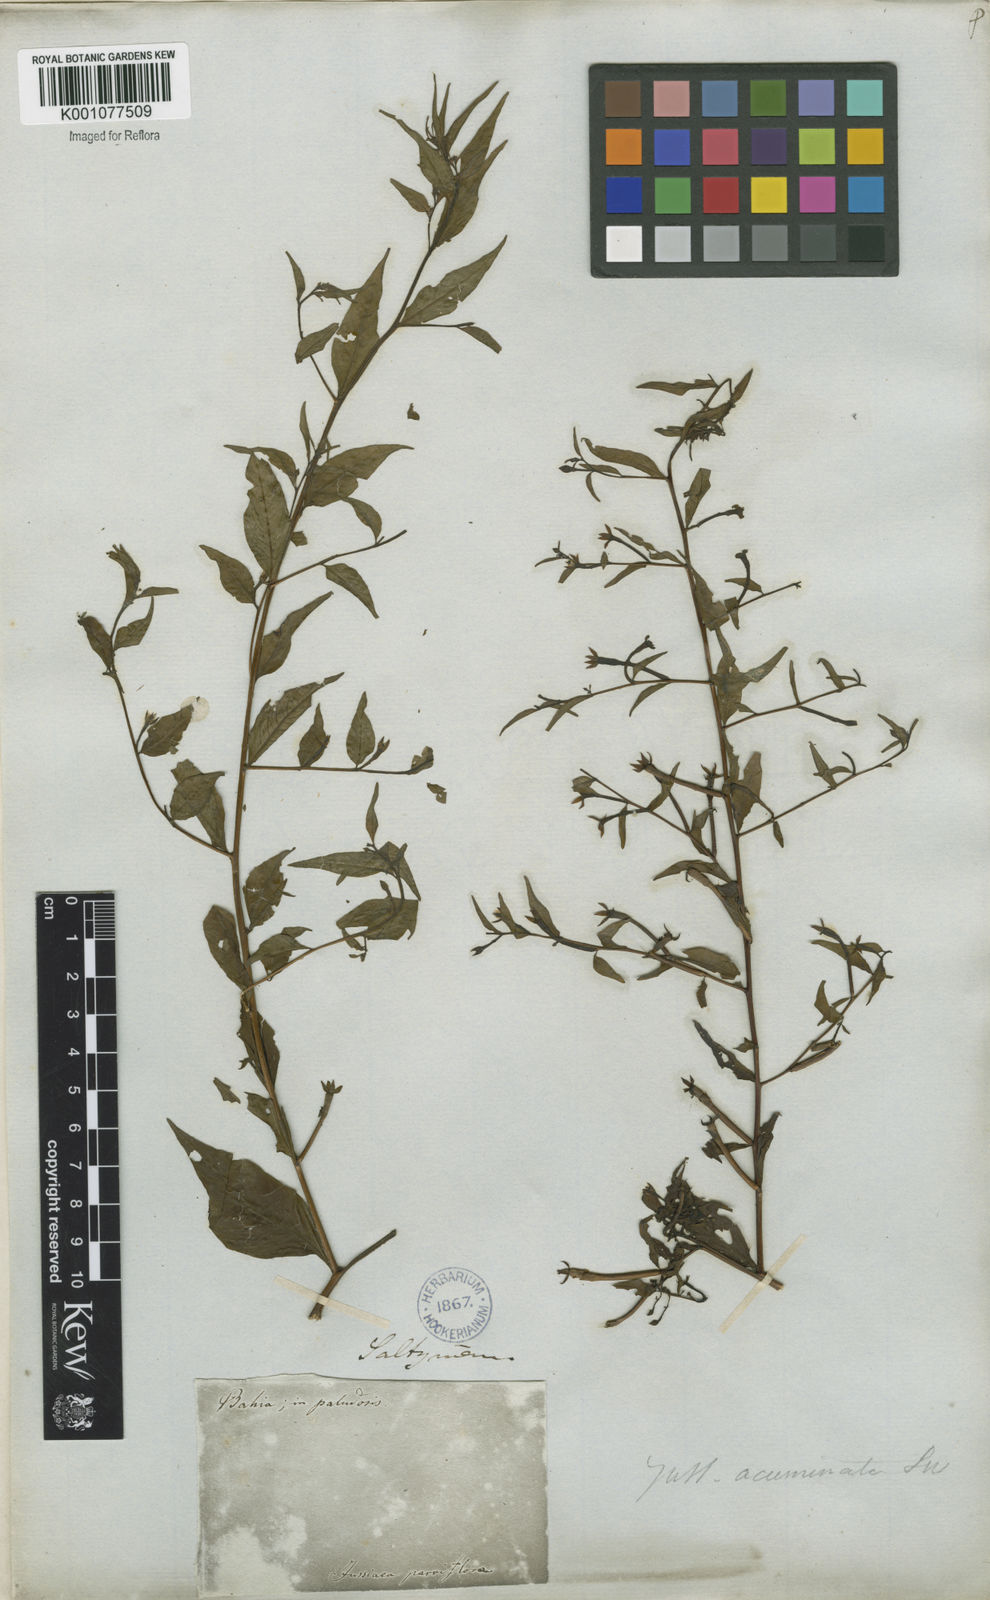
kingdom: Plantae
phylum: Tracheophyta
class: Magnoliopsida
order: Myrtales
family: Onagraceae
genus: Ludwigia
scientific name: Ludwigia hyssopifolia
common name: Linear leaf water primrose
